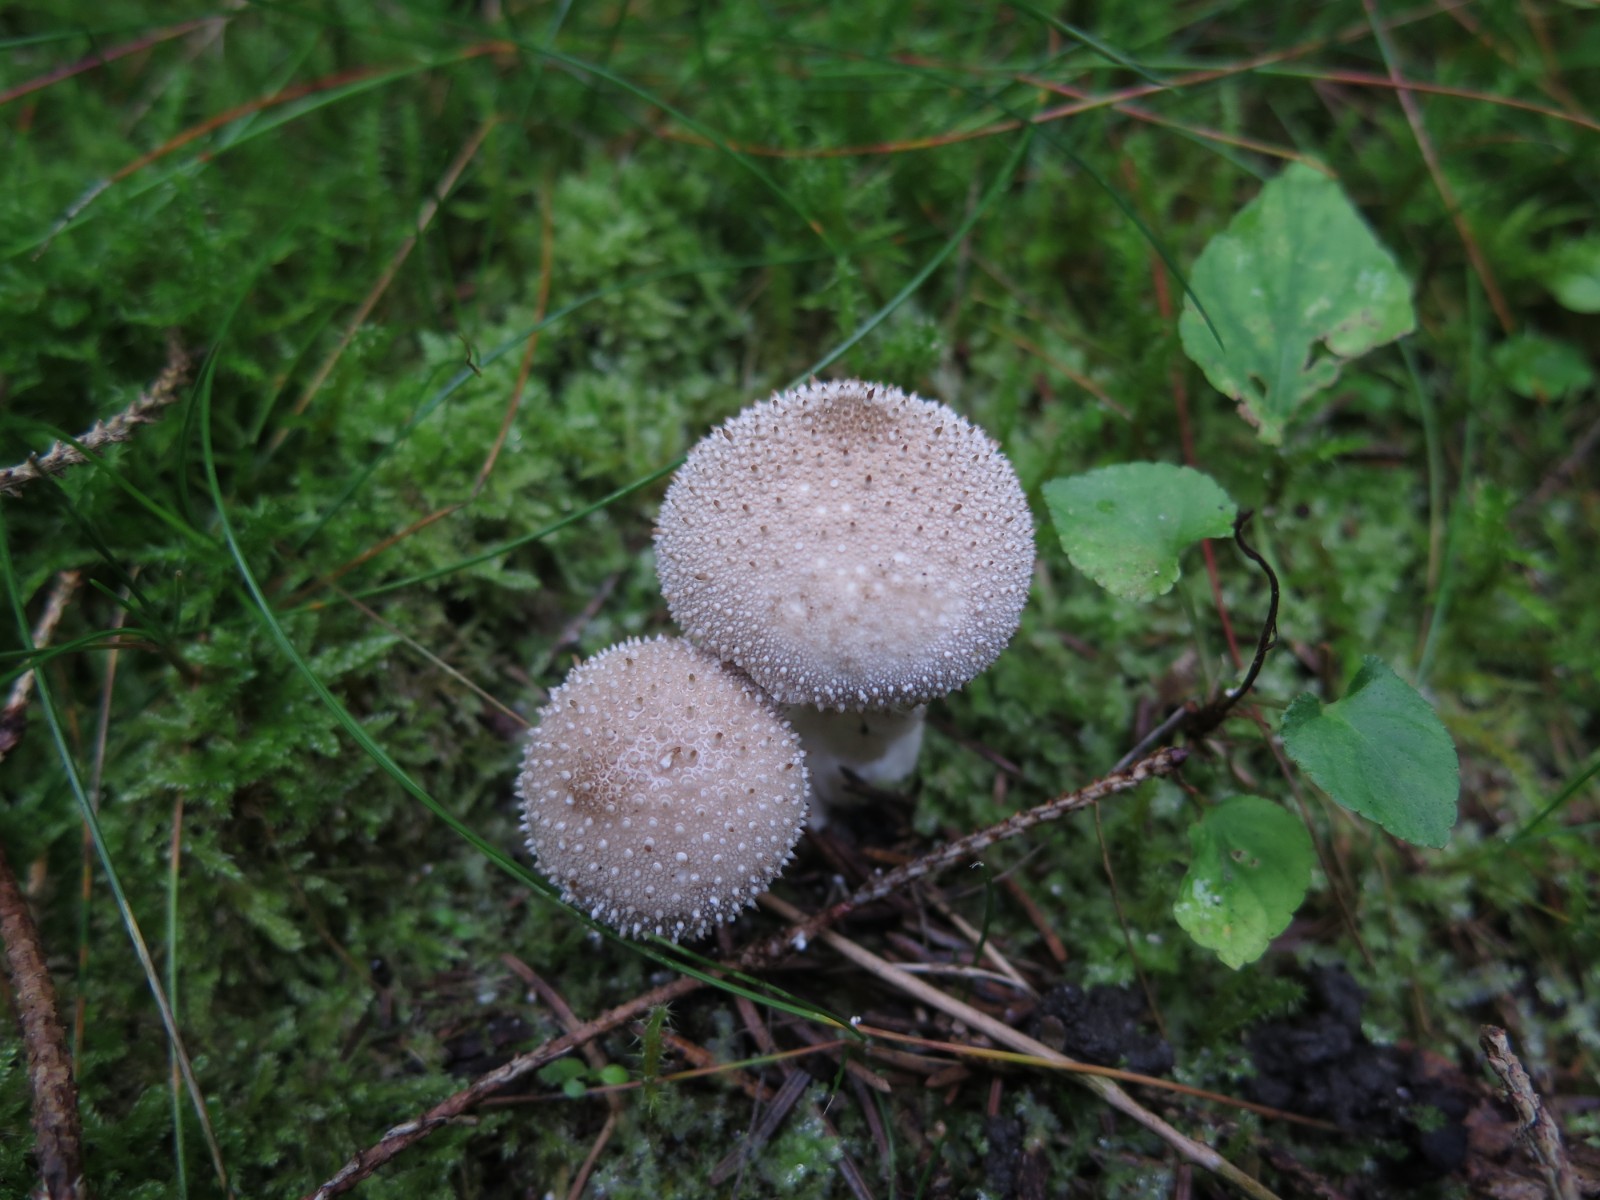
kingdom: Fungi
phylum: Basidiomycota
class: Agaricomycetes
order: Agaricales
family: Lycoperdaceae
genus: Lycoperdon
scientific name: Lycoperdon perlatum
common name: krystal-støvbold
